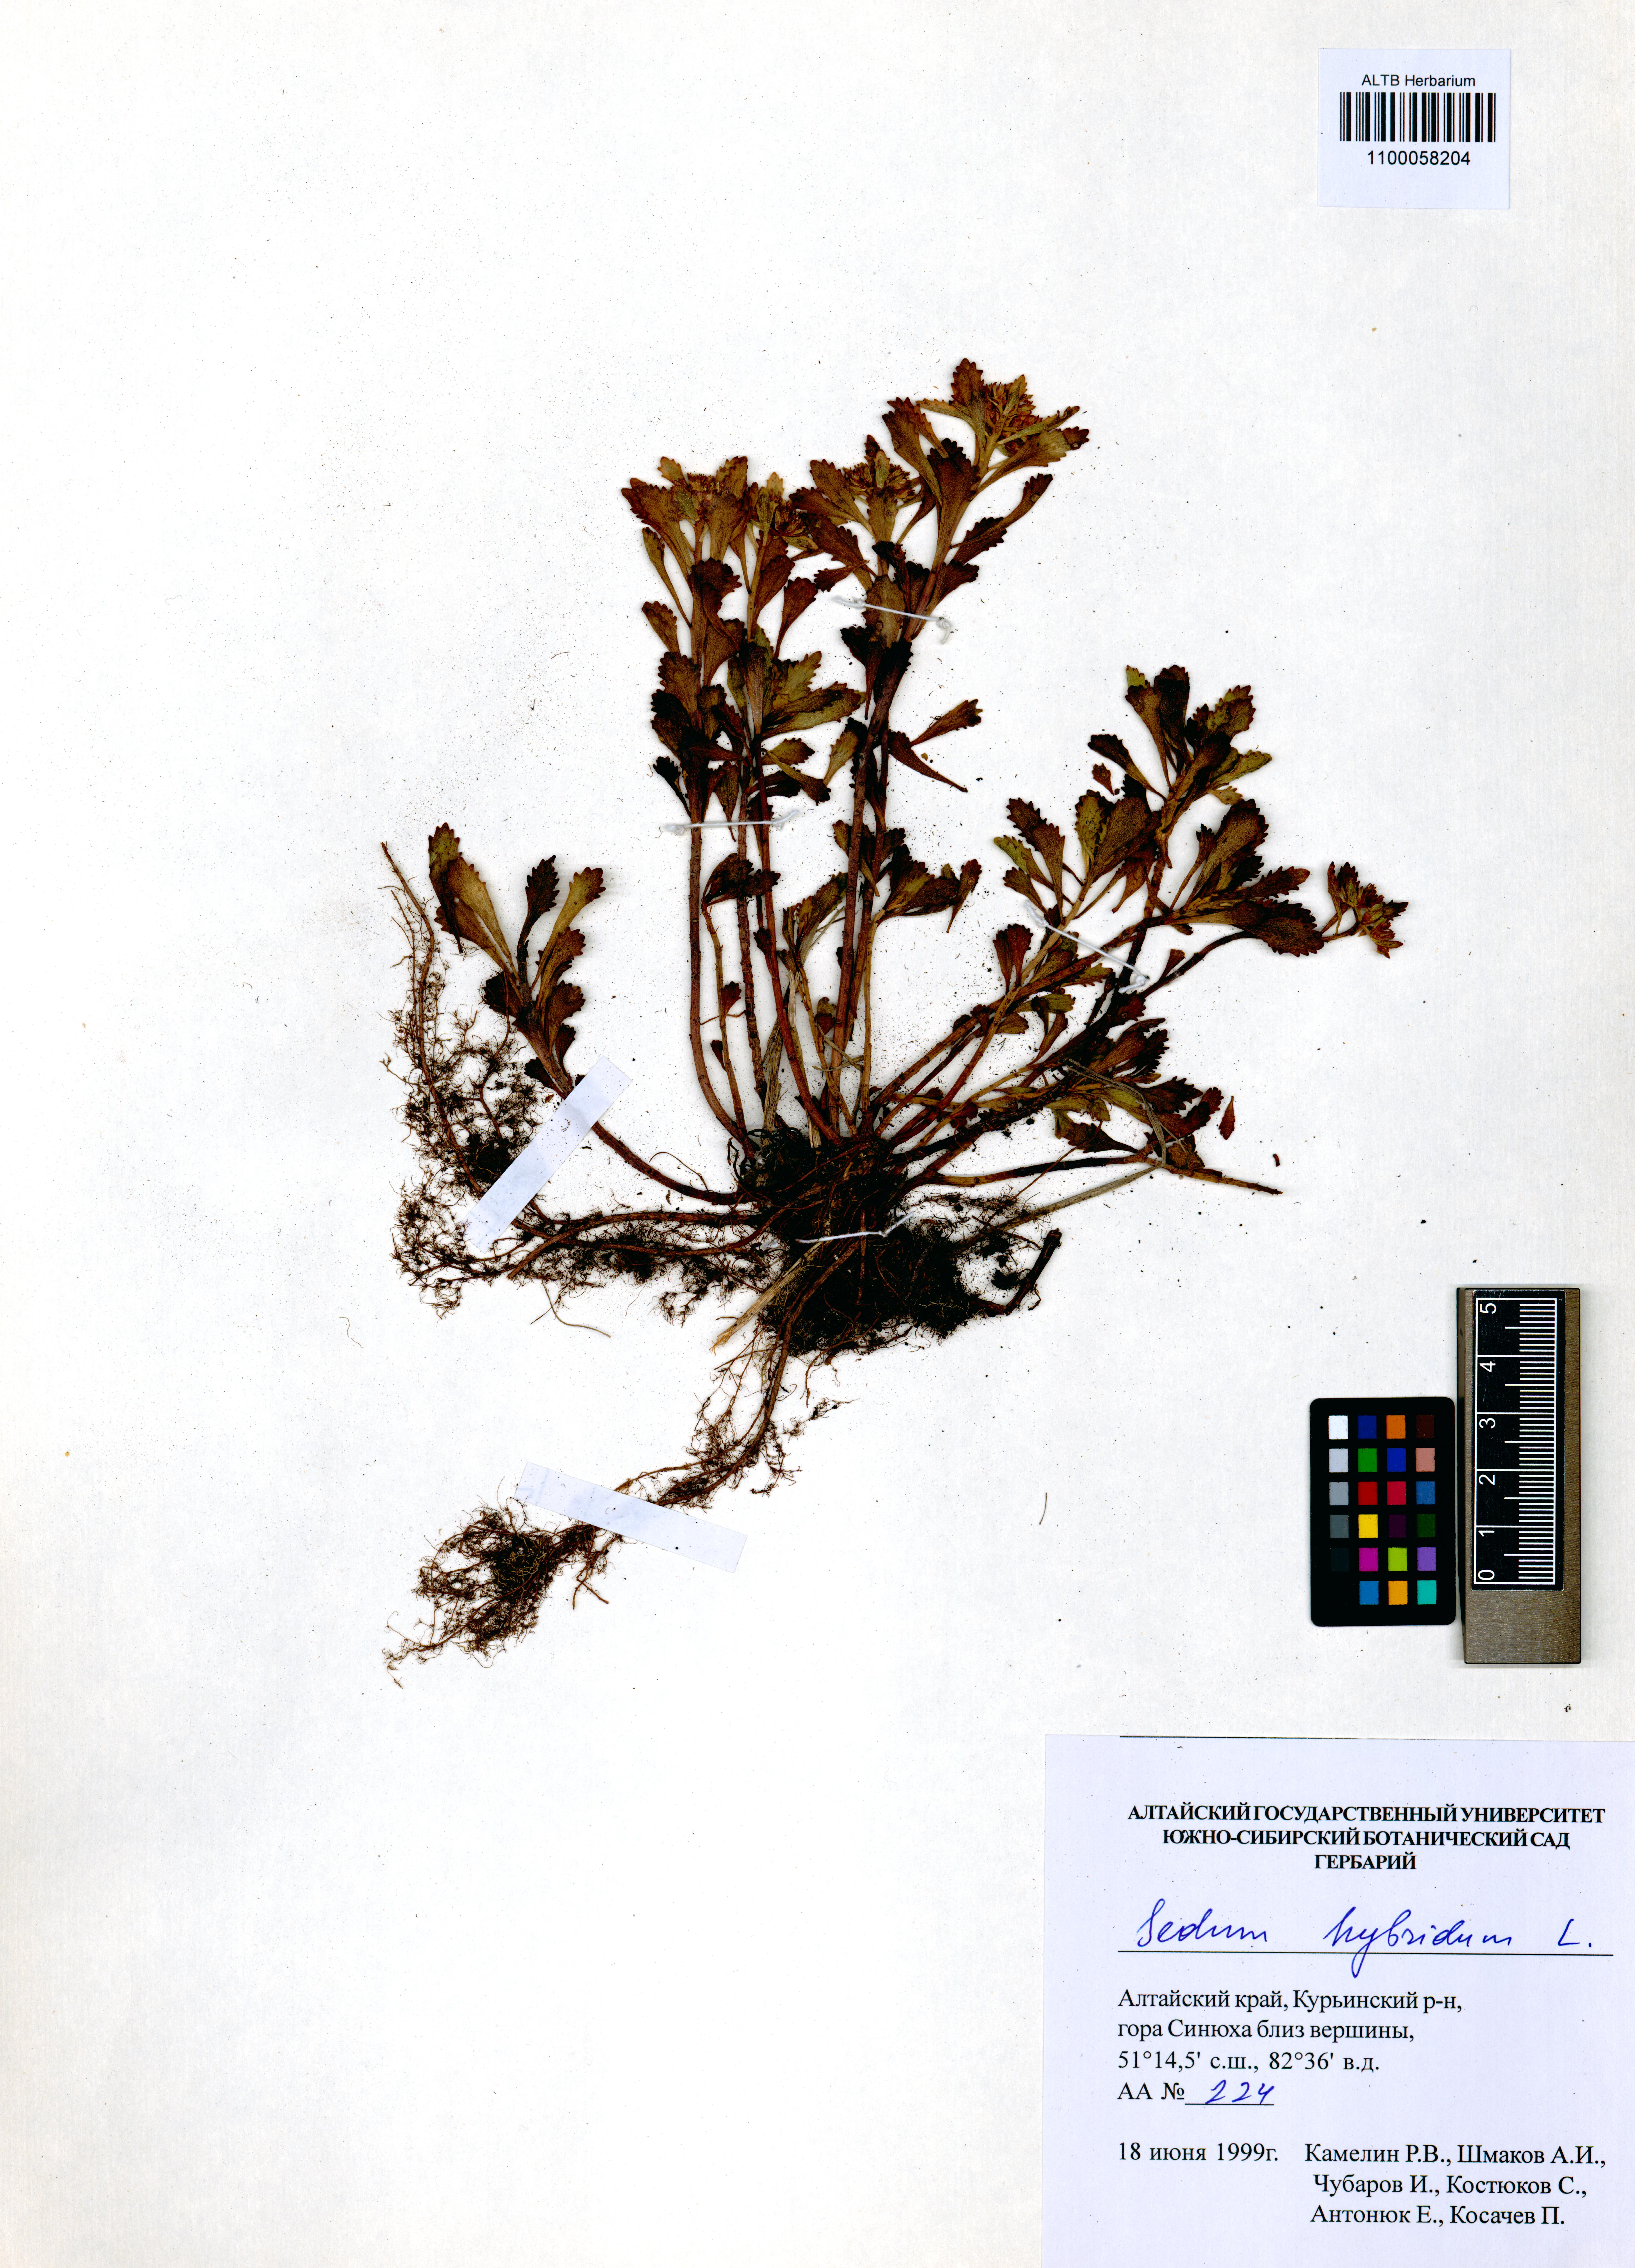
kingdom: Plantae
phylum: Tracheophyta
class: Magnoliopsida
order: Saxifragales
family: Crassulaceae
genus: Phedimus
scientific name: Phedimus hybridus
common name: Hybrid stonecrop
